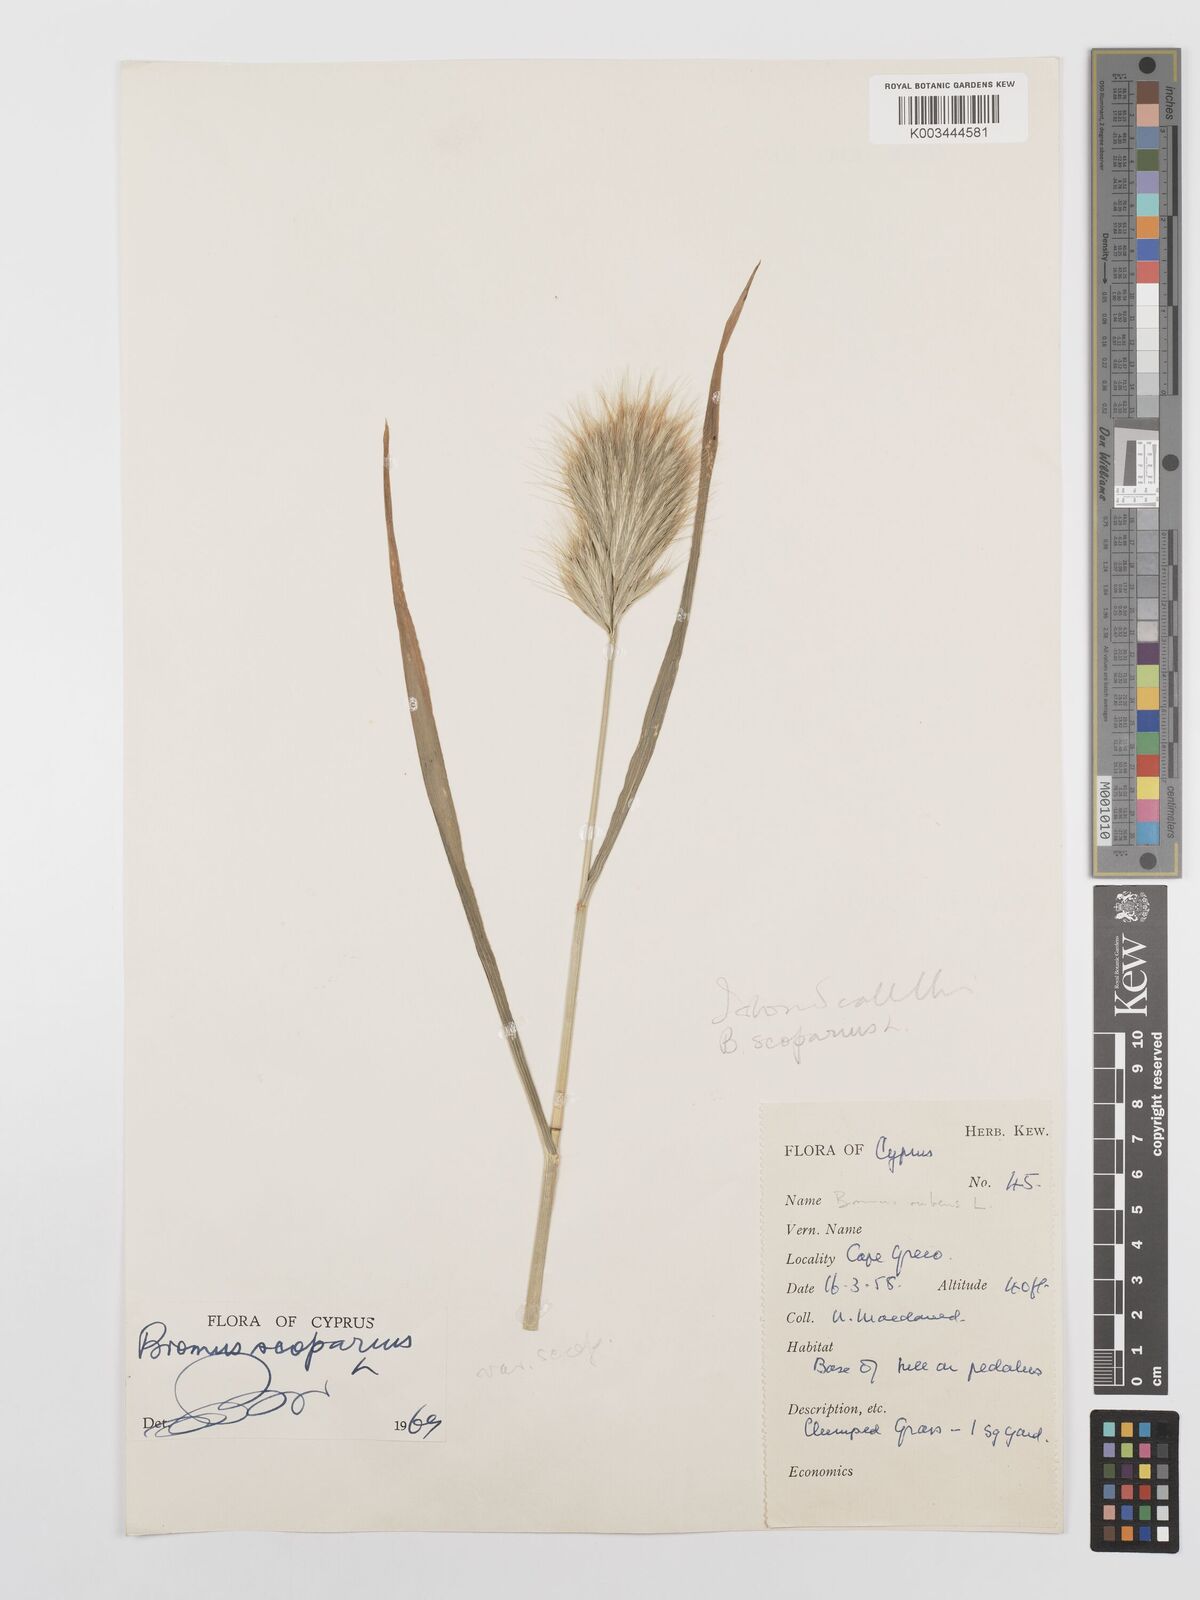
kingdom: Plantae
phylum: Tracheophyta
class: Liliopsida
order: Poales
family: Poaceae
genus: Bromus
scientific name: Bromus scoparius
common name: Broom brome
